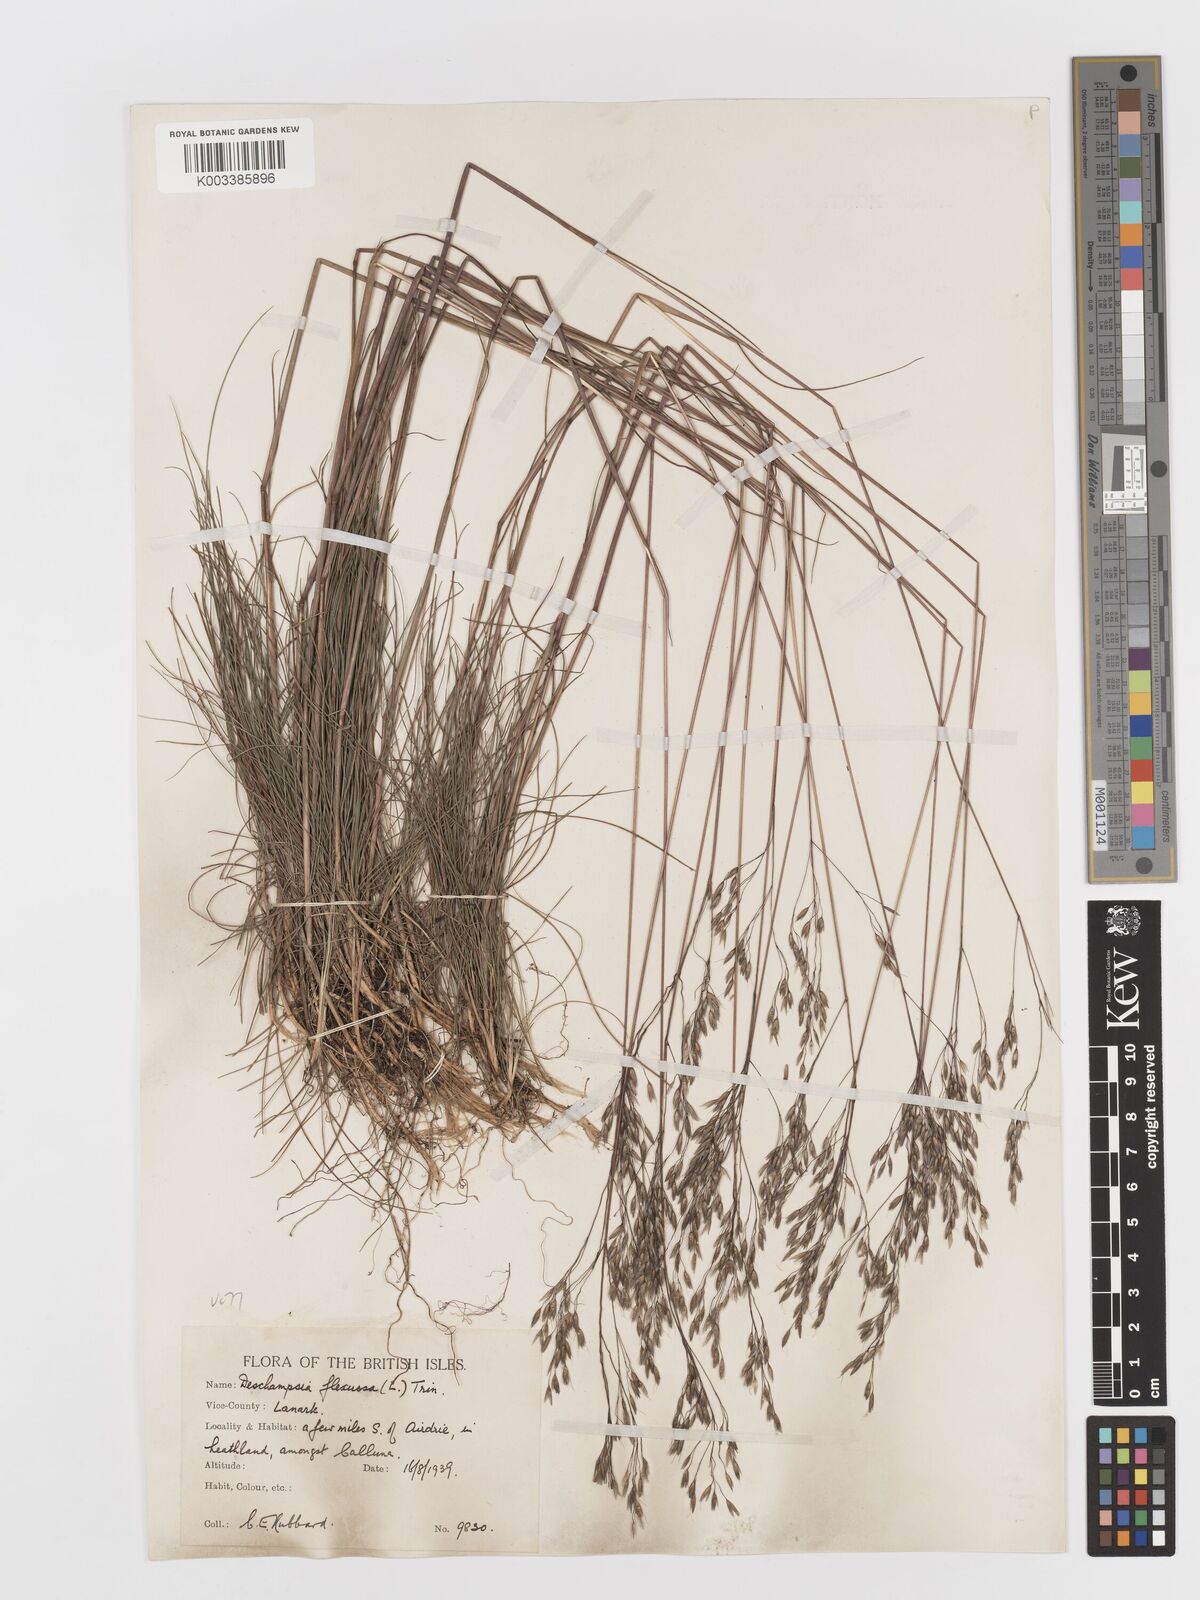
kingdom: Plantae
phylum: Tracheophyta
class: Liliopsida
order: Poales
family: Poaceae
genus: Avenella
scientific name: Avenella flexuosa
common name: Wavy hairgrass
